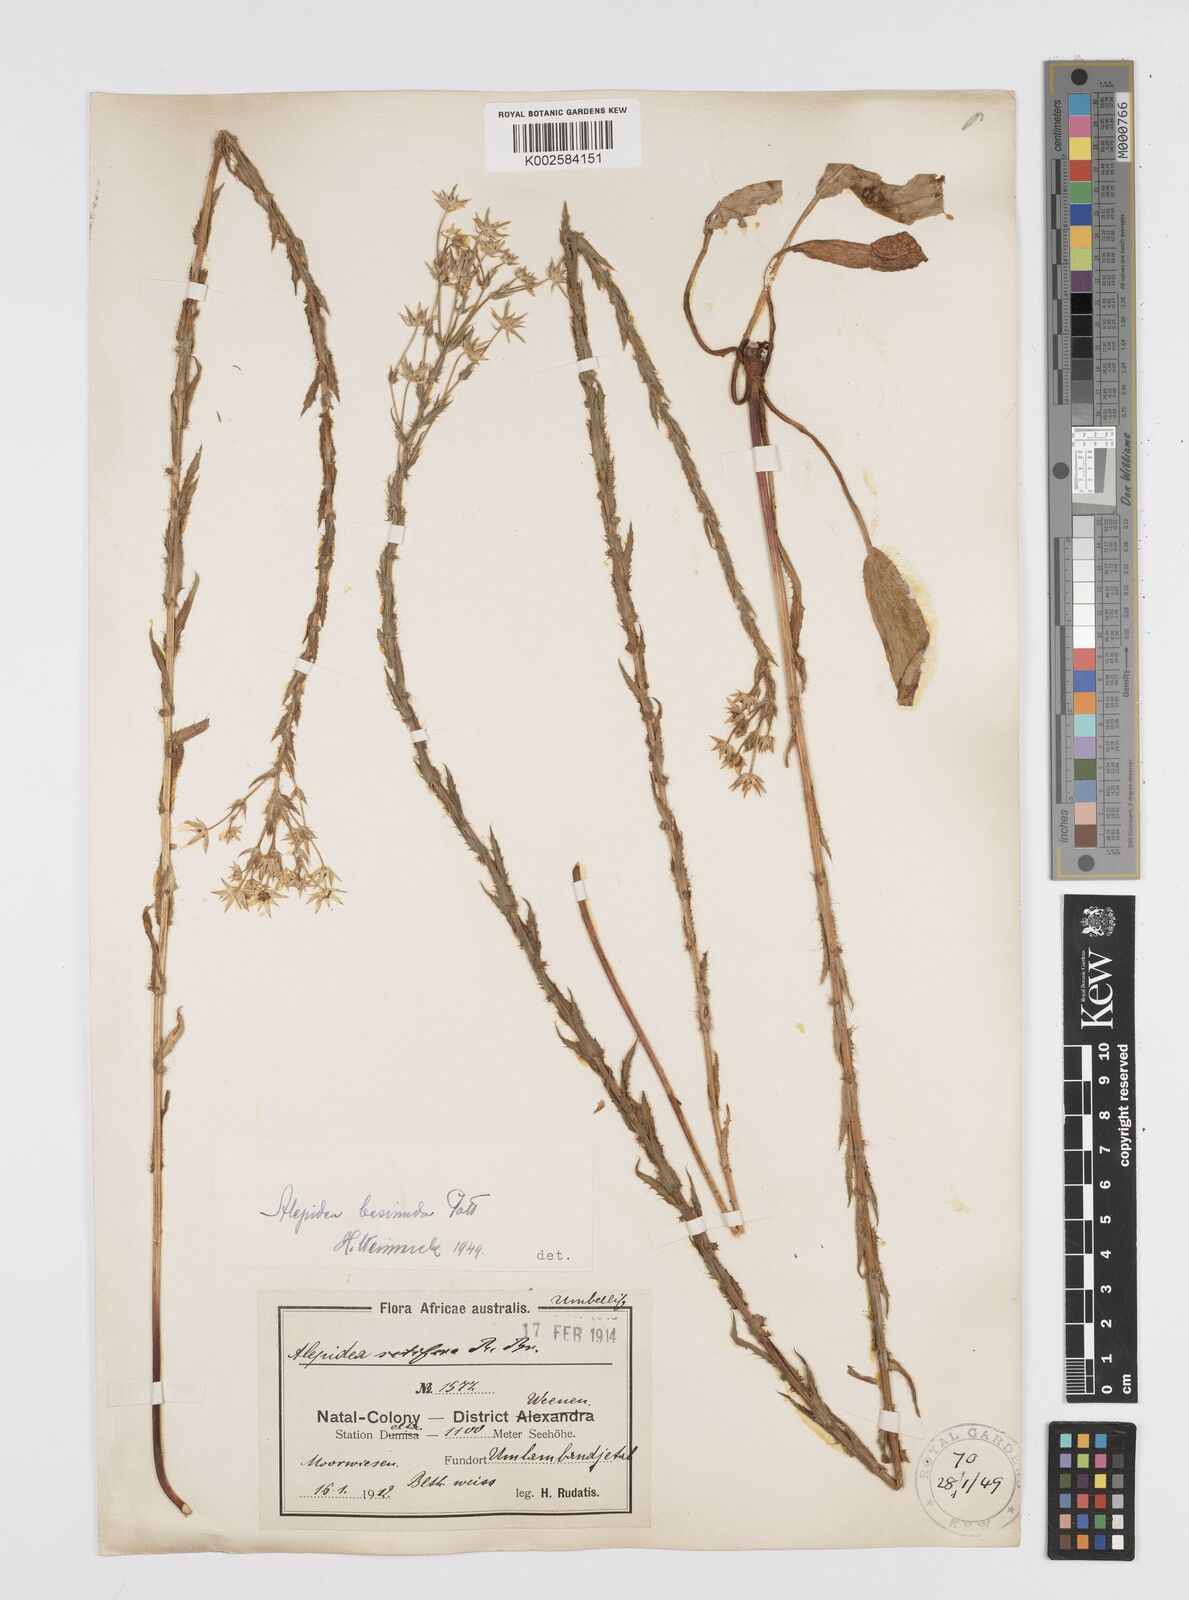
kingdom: Plantae
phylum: Tracheophyta
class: Magnoliopsida
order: Apiales
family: Apiaceae
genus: Alepidea
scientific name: Alepidea setifera
